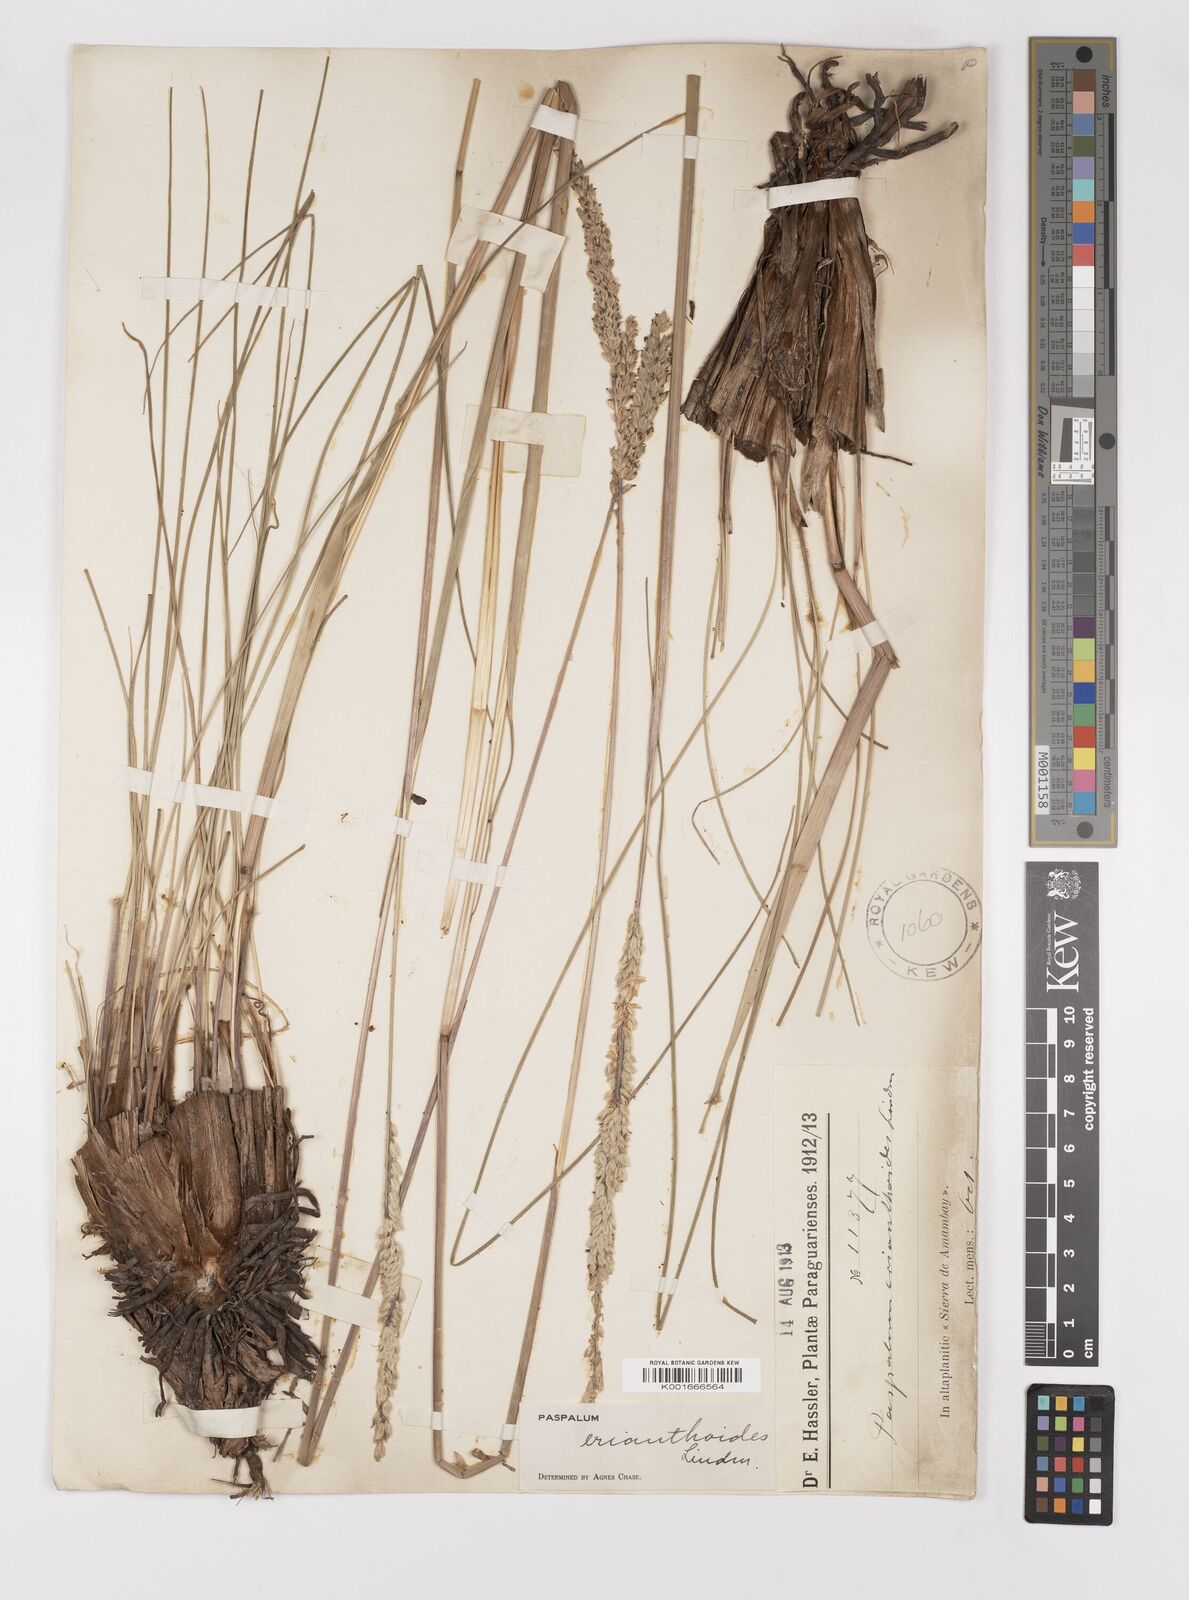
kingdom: Plantae
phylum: Tracheophyta
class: Liliopsida
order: Poales
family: Poaceae
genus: Paspalum
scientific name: Paspalum erianthoides
